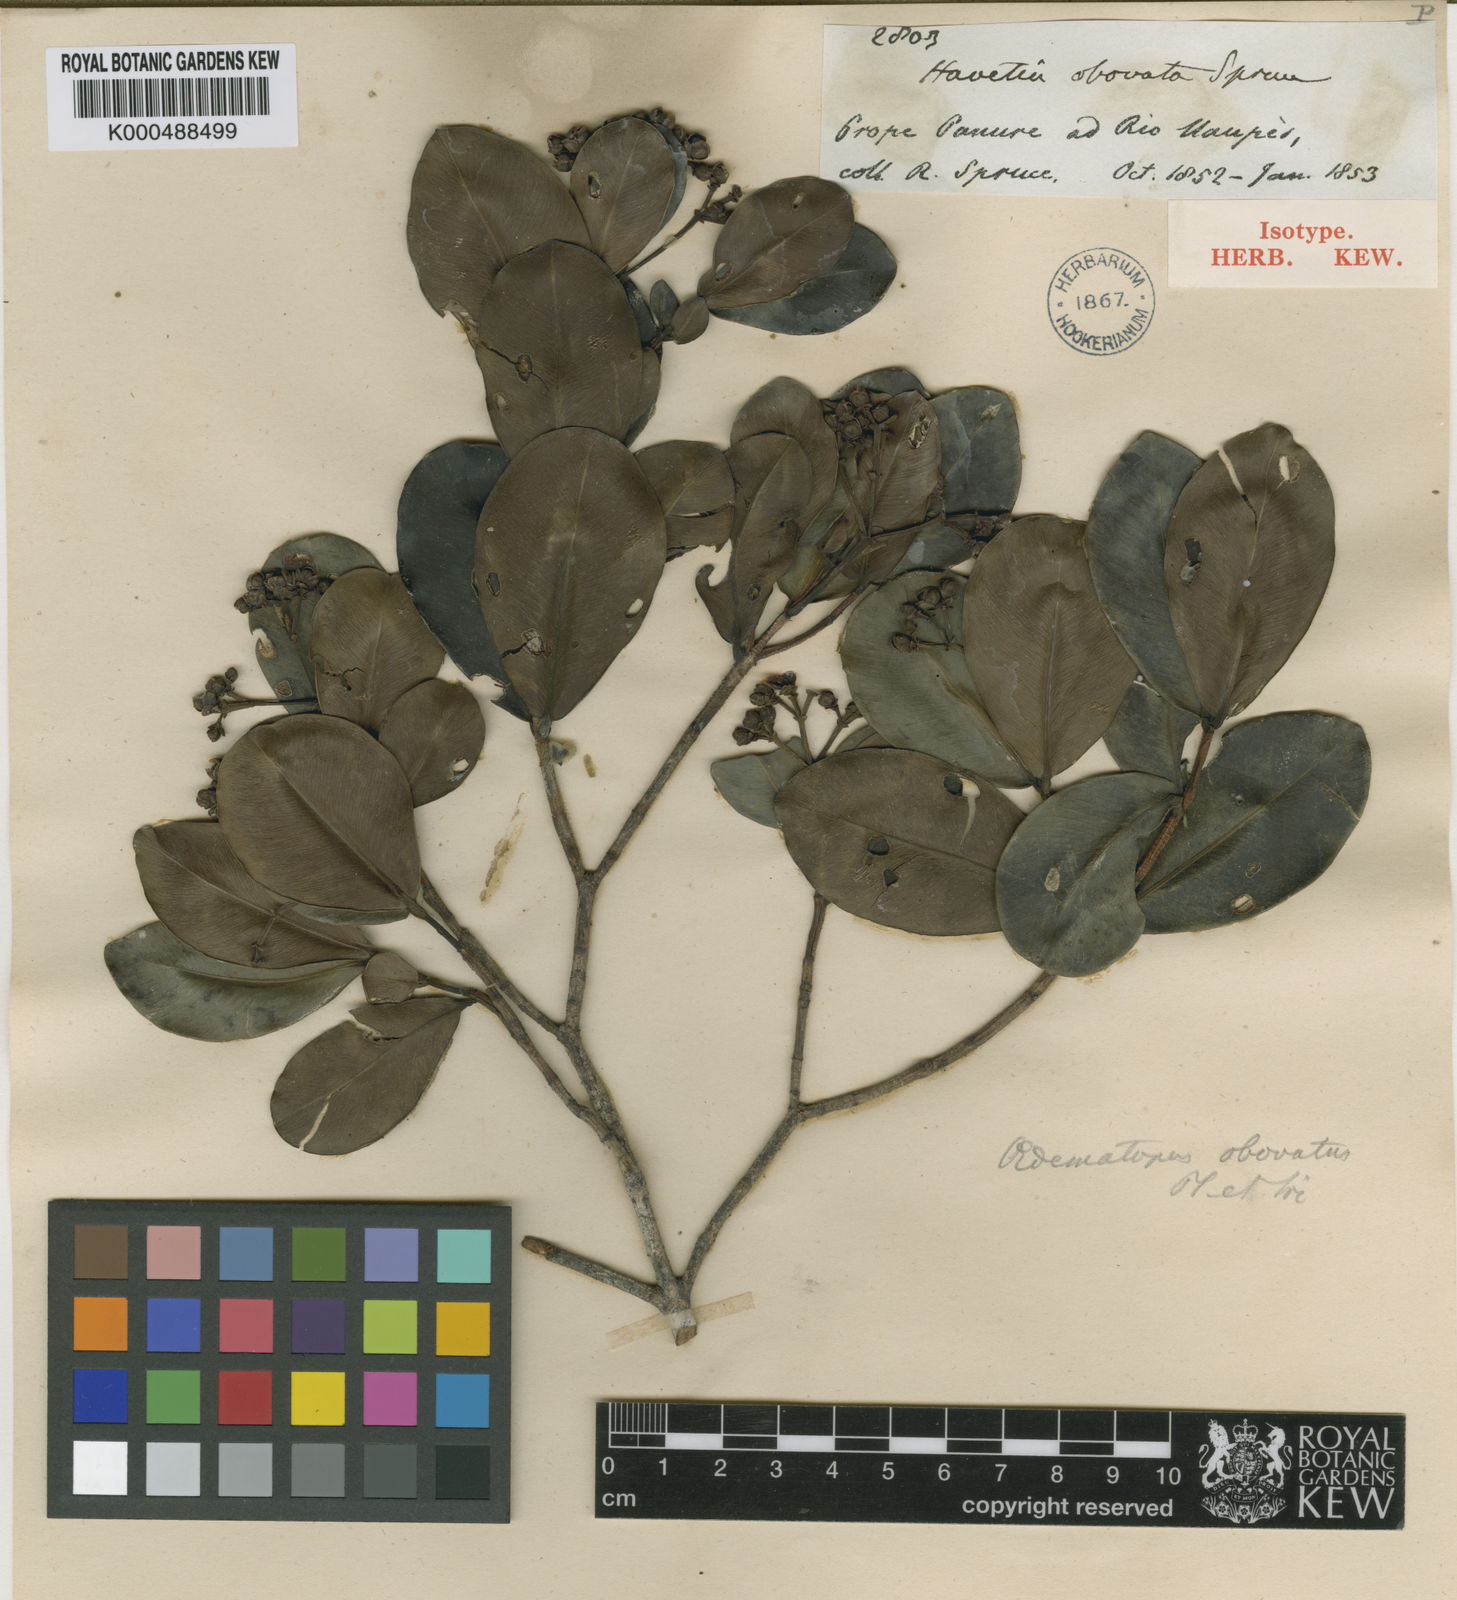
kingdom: Plantae
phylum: Tracheophyta
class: Magnoliopsida
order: Malpighiales
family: Clusiaceae
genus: Clusia
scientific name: Clusia obovata
